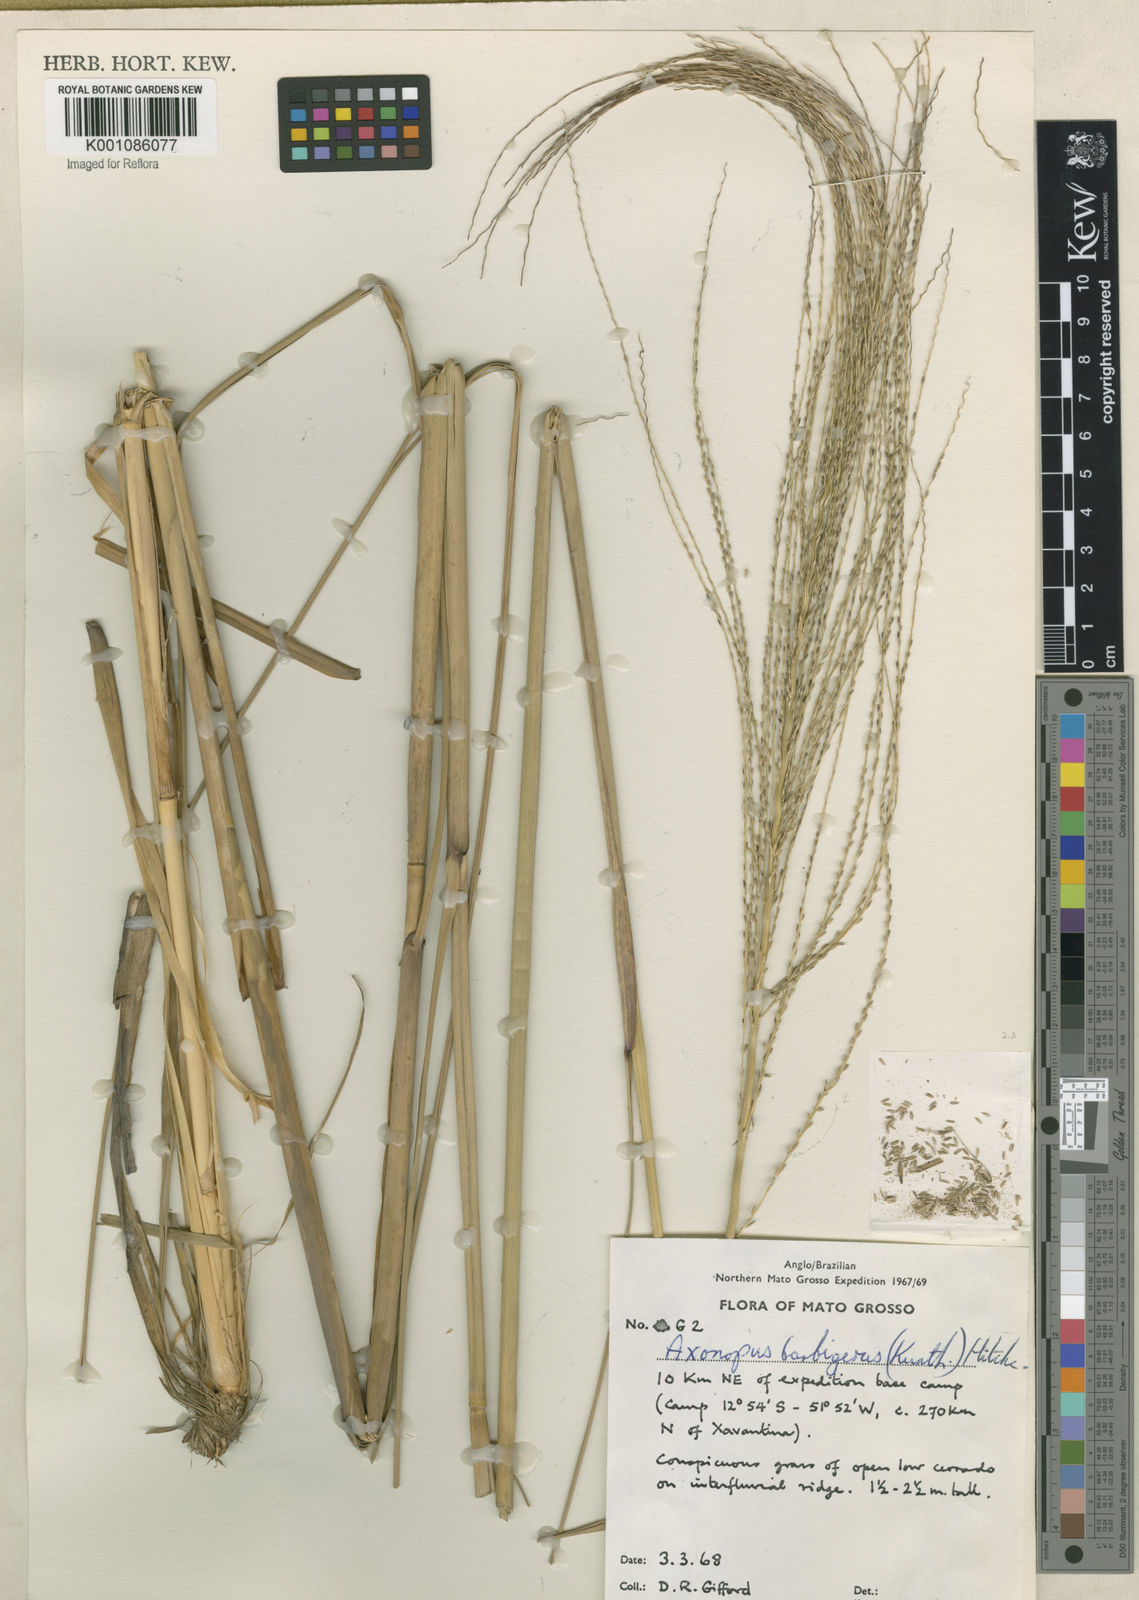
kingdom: Plantae
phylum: Tracheophyta
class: Liliopsida
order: Poales
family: Poaceae
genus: Axonopus
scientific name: Axonopus siccus
